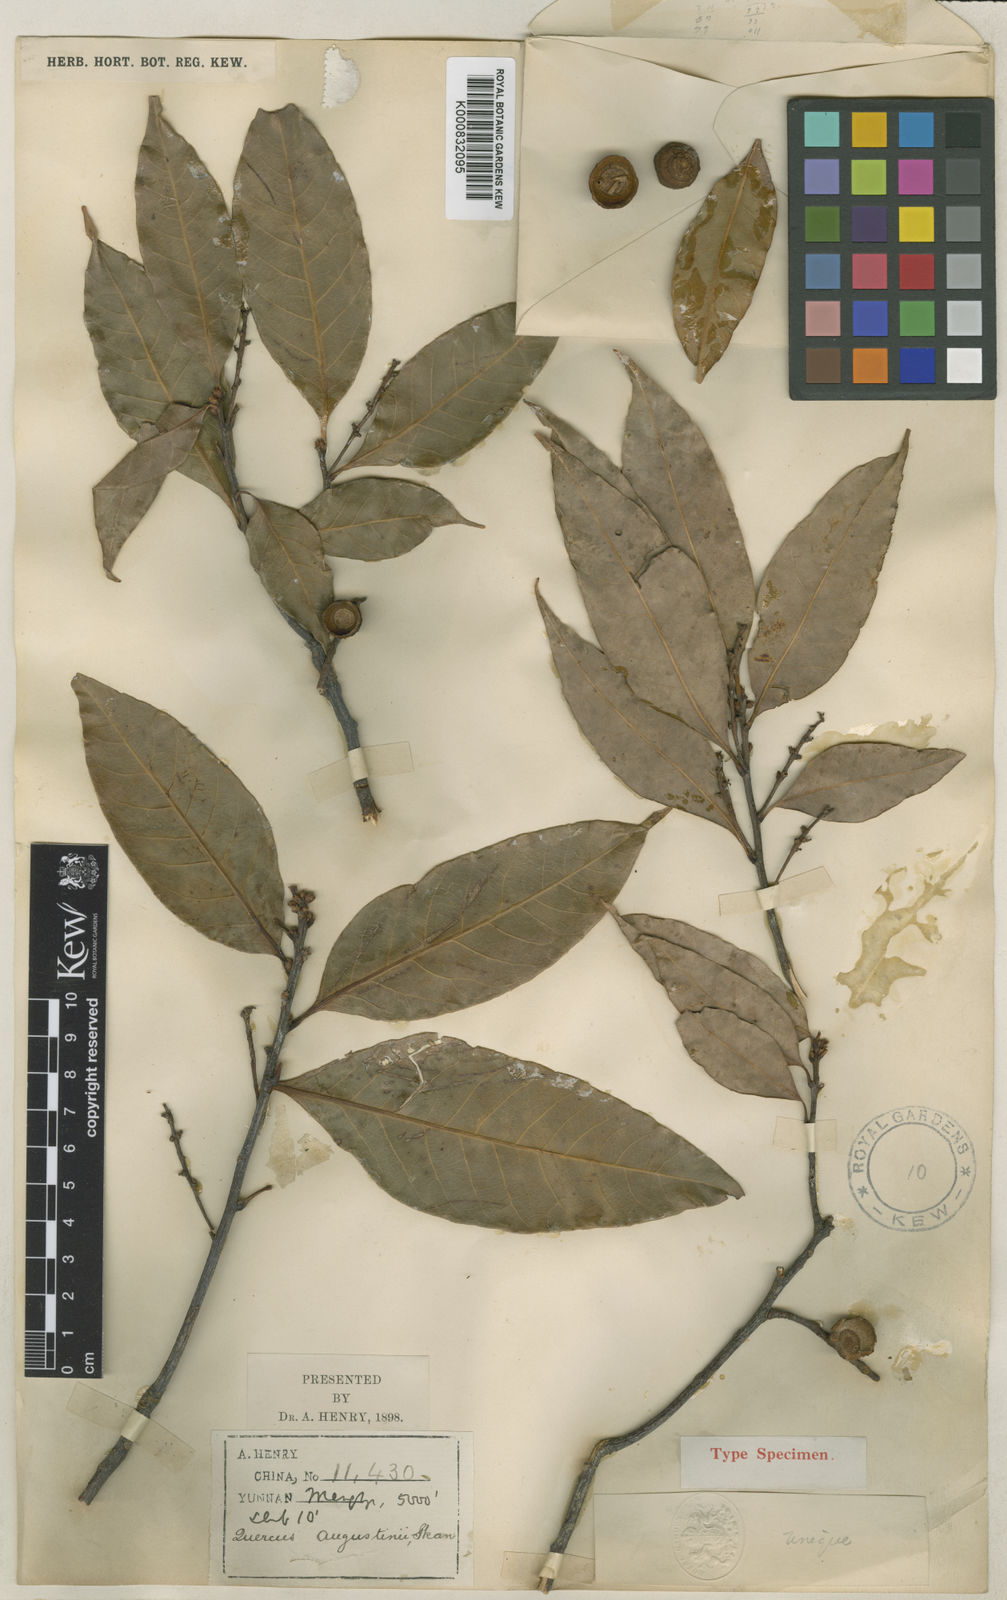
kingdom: Plantae
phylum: Tracheophyta
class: Magnoliopsida
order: Fagales
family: Fagaceae
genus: Quercus
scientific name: Quercus augustini
